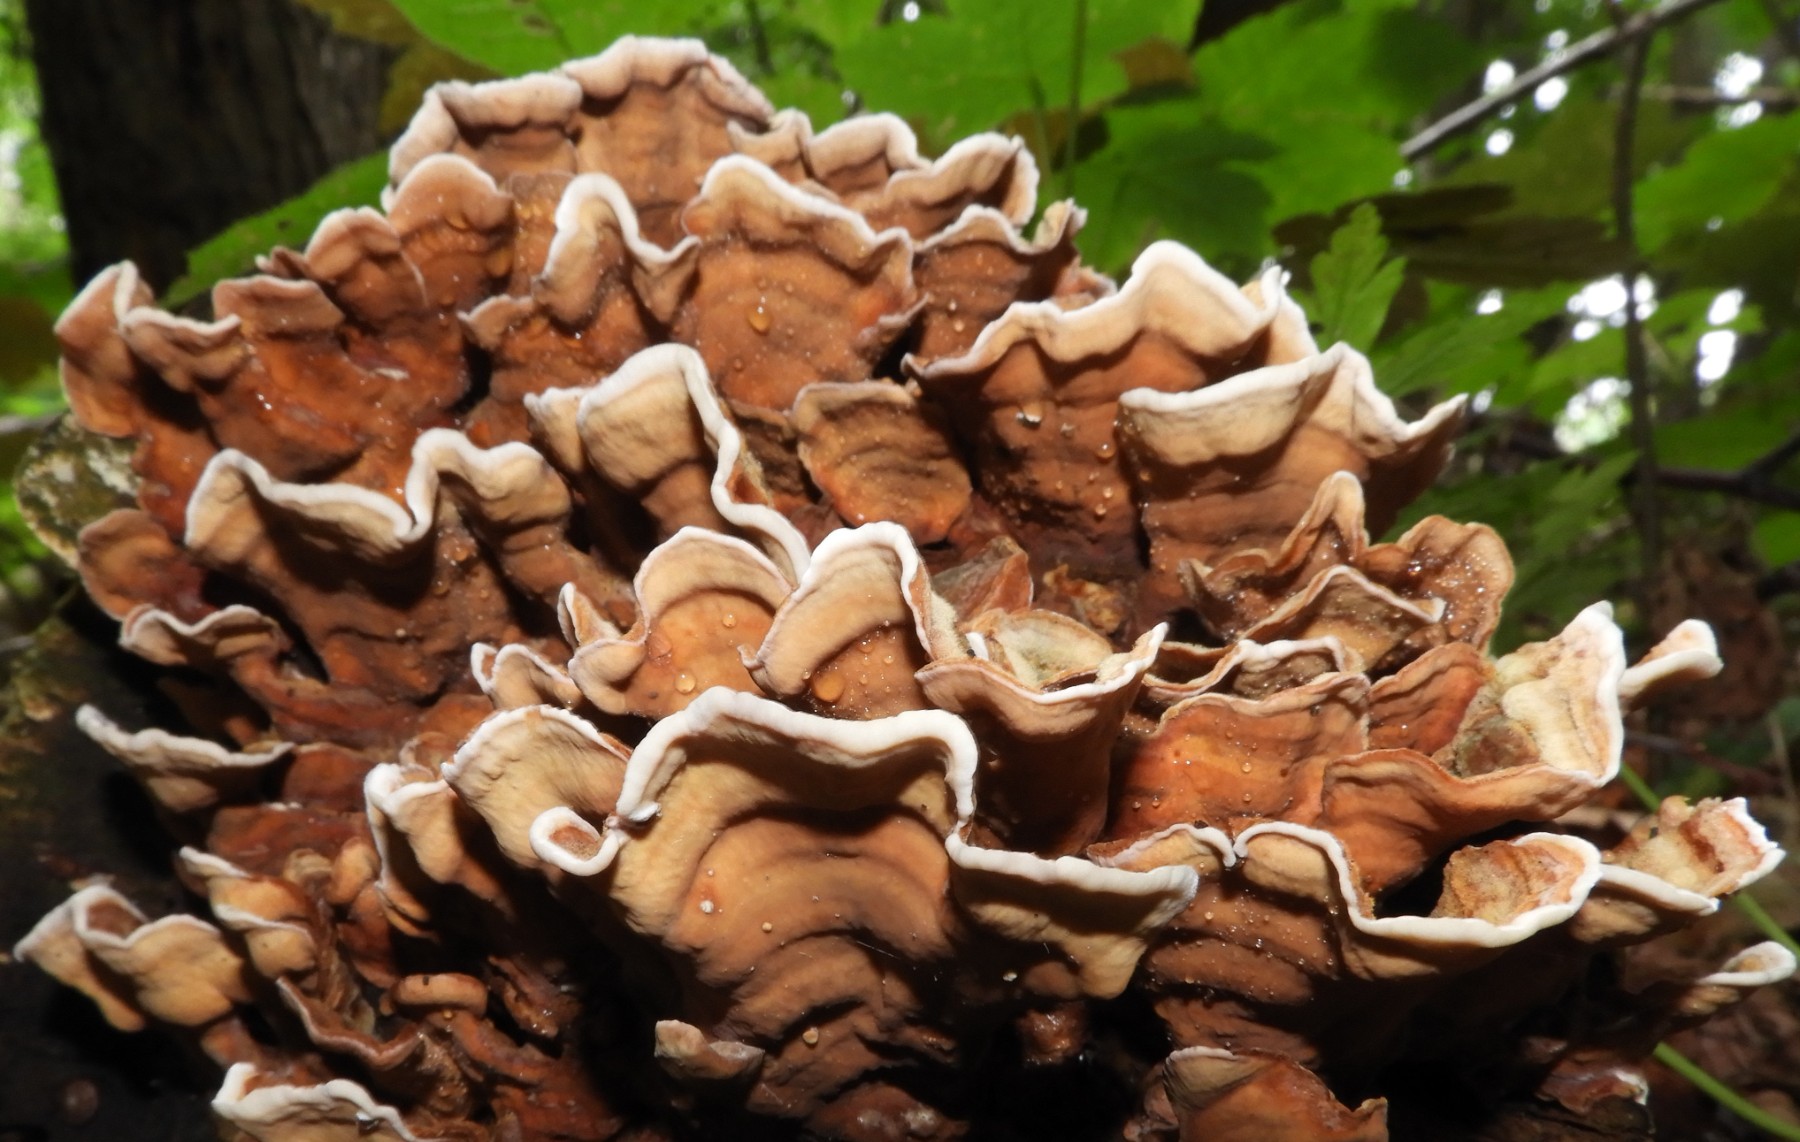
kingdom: Fungi
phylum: Basidiomycota
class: Agaricomycetes
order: Russulales
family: Stereaceae
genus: Stereum
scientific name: Stereum hirsutum
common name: håret lædersvamp
